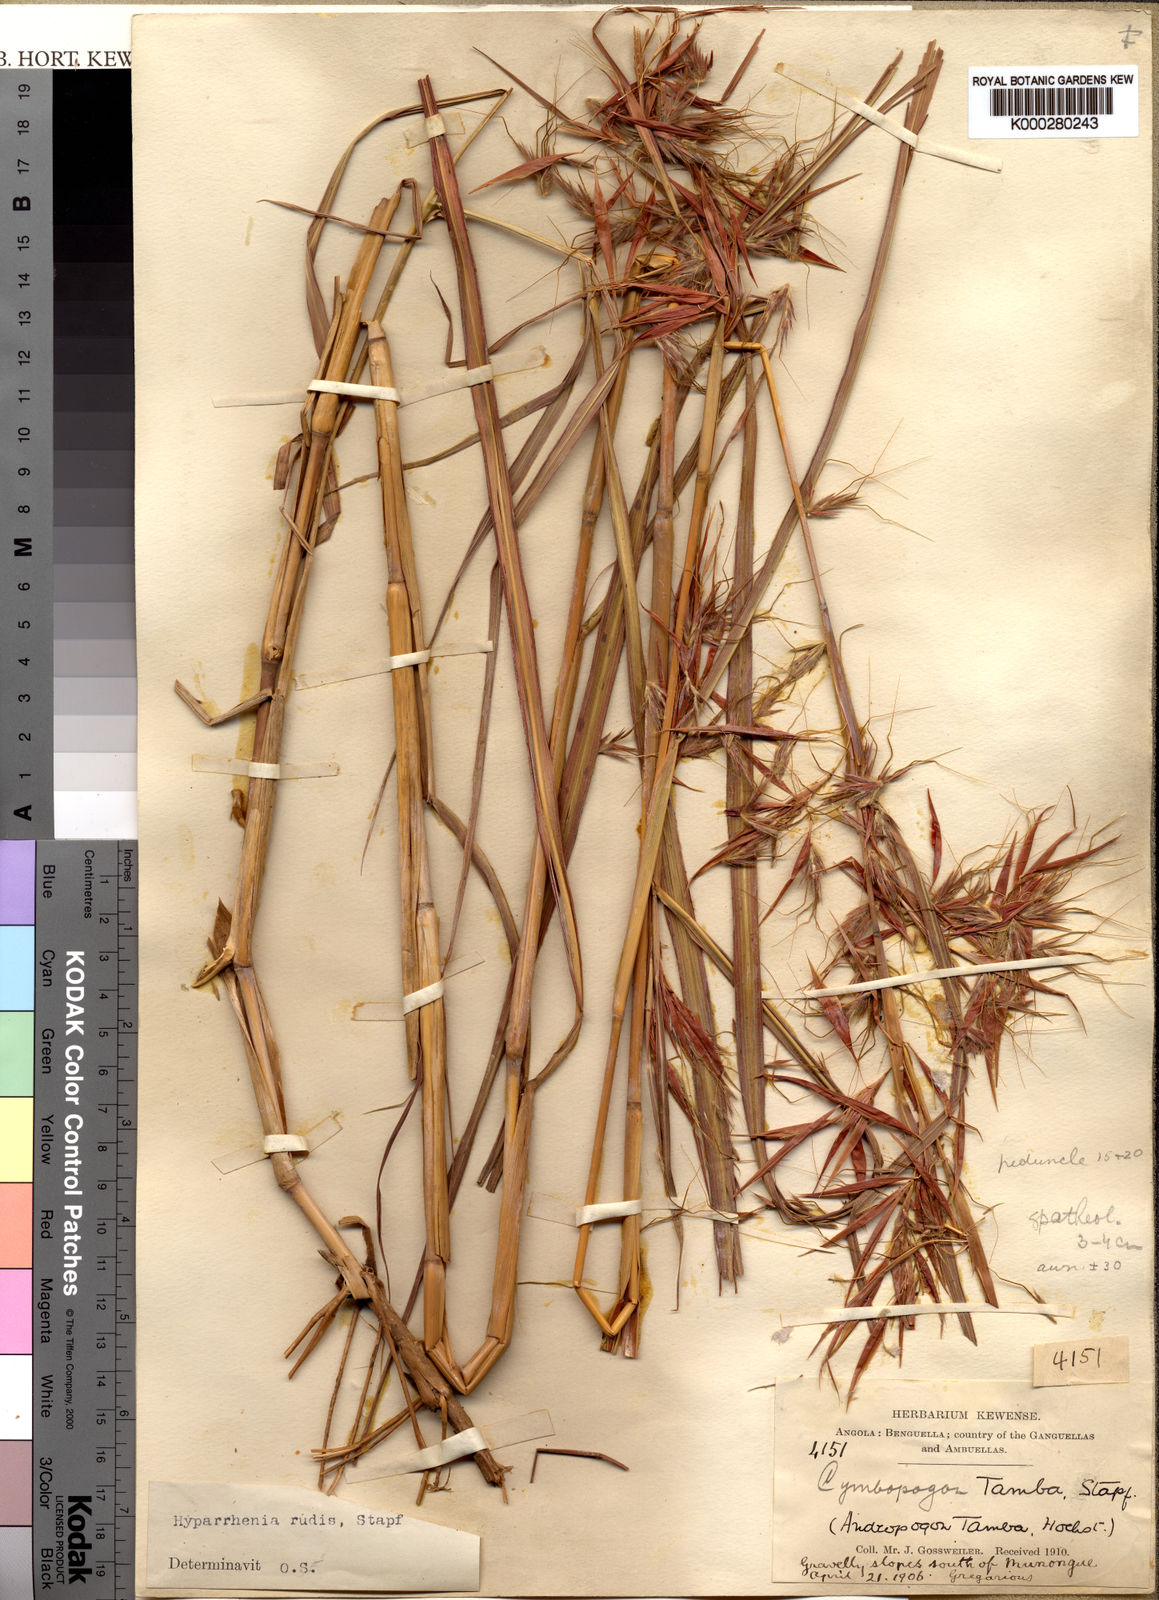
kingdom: Plantae
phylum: Tracheophyta
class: Liliopsida
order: Poales
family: Poaceae
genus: Hyparrhenia
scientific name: Hyparrhenia rudis
